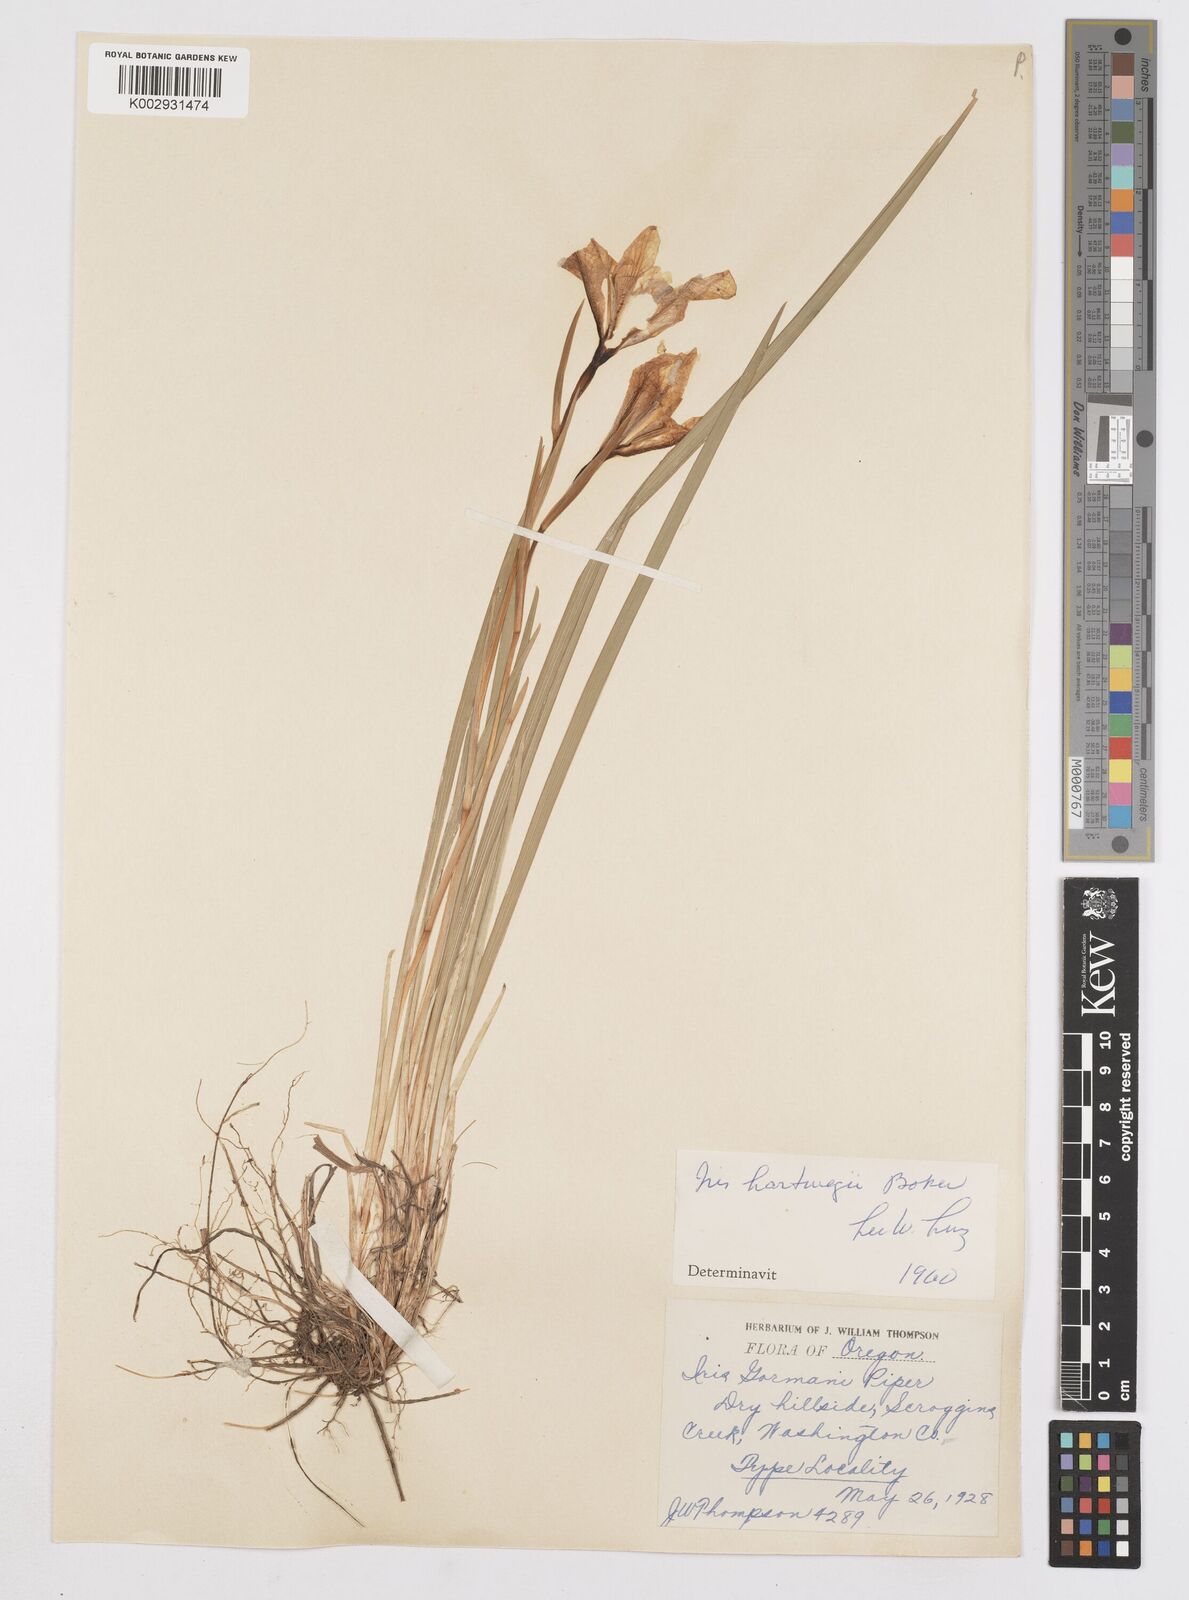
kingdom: Plantae
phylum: Tracheophyta
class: Liliopsida
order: Asparagales
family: Iridaceae
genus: Iris
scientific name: Iris hartwegii
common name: Sierra iris
